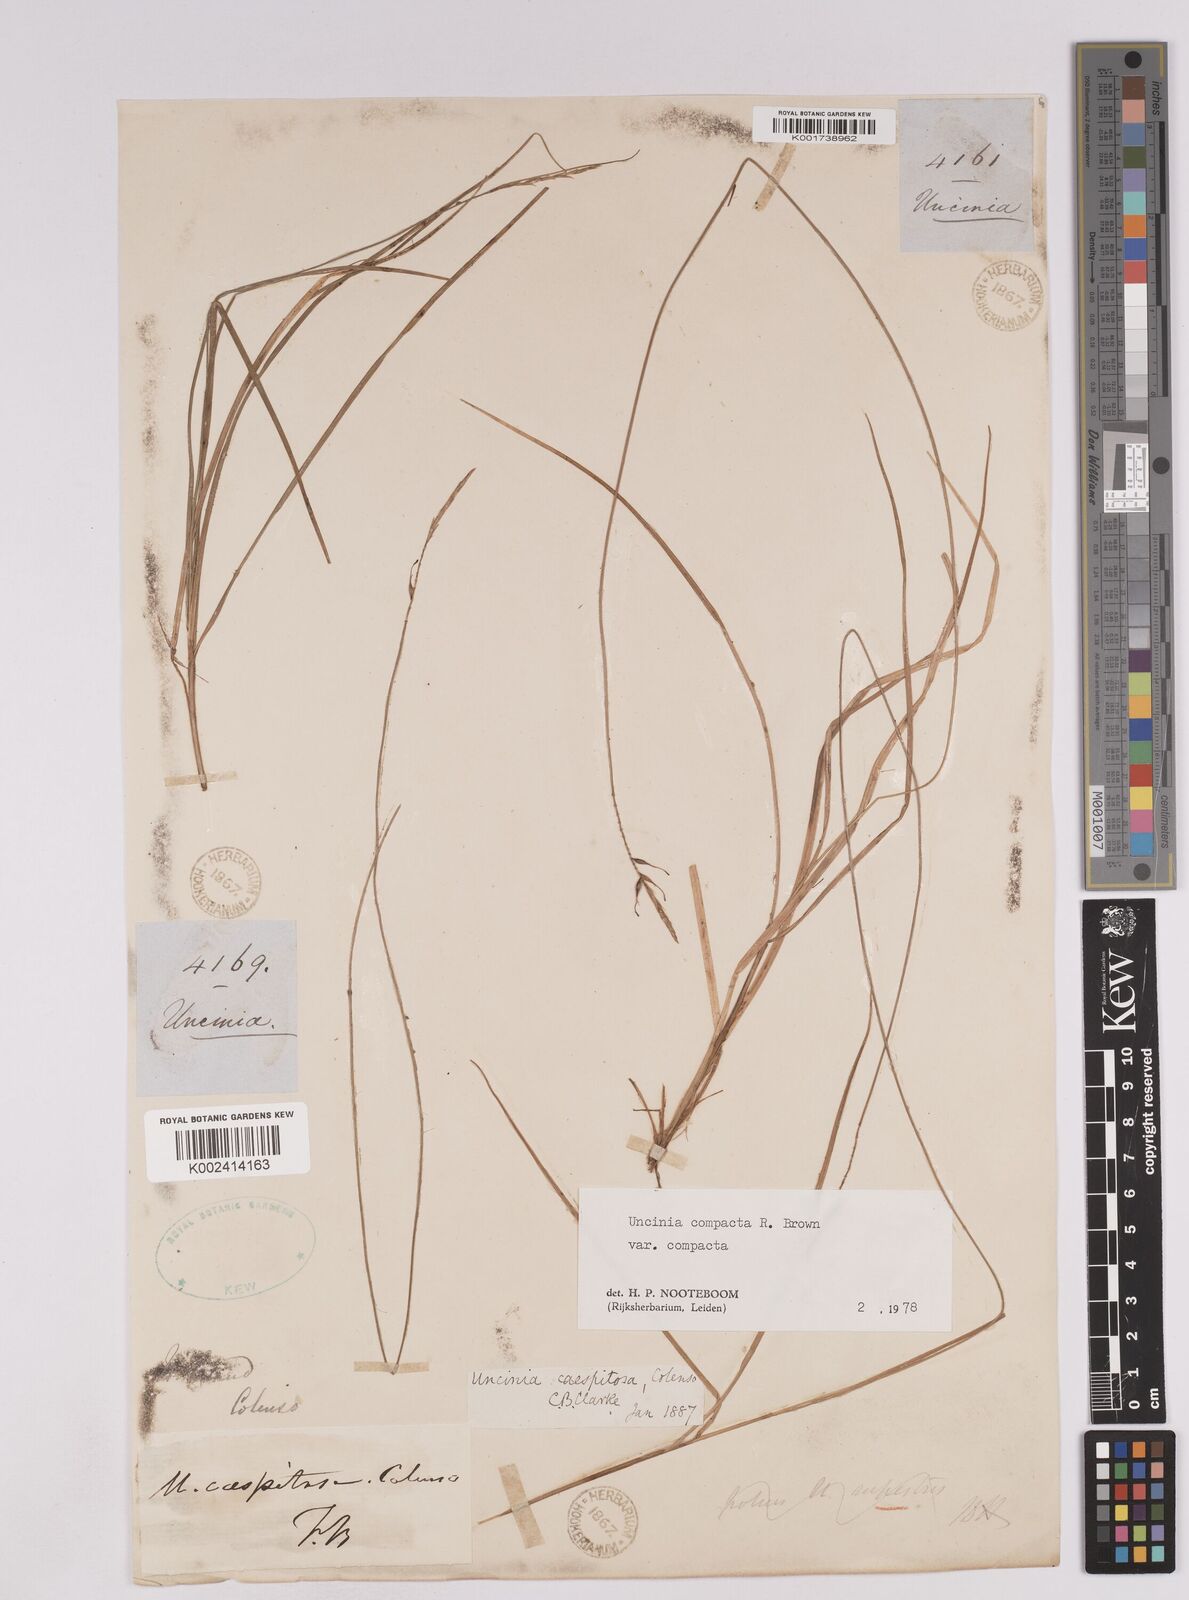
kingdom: Plantae
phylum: Tracheophyta
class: Liliopsida
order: Poales
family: Cyperaceae
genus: Carex
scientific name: Carex austrocompacta
